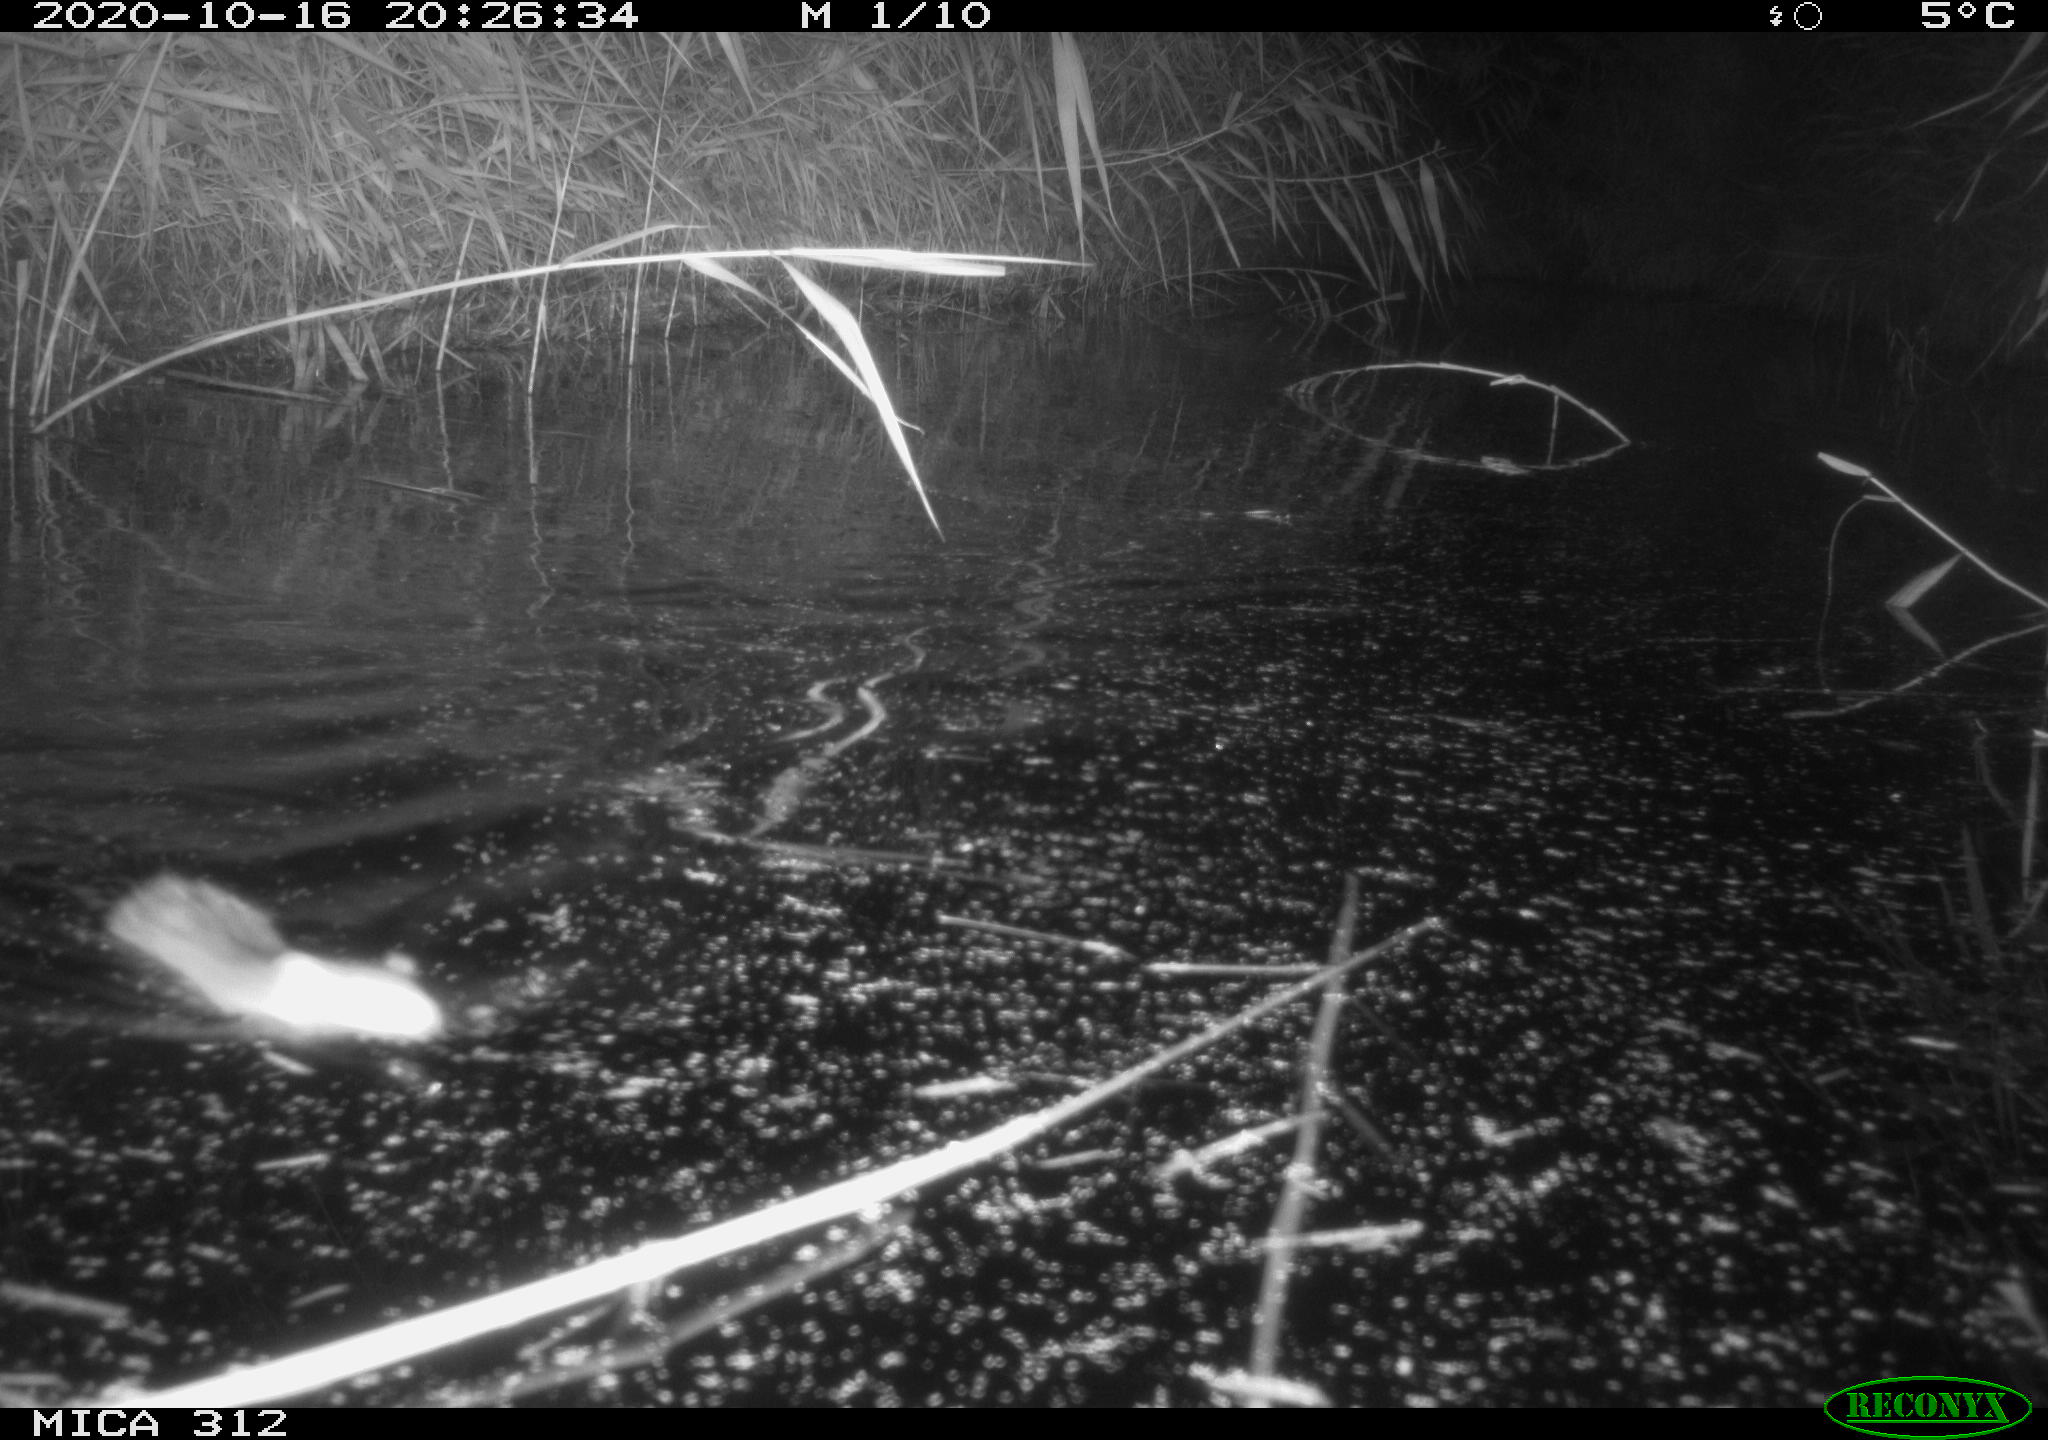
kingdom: Animalia
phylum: Chordata
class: Mammalia
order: Rodentia
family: Muridae
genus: Rattus
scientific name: Rattus norvegicus
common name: Brown rat
